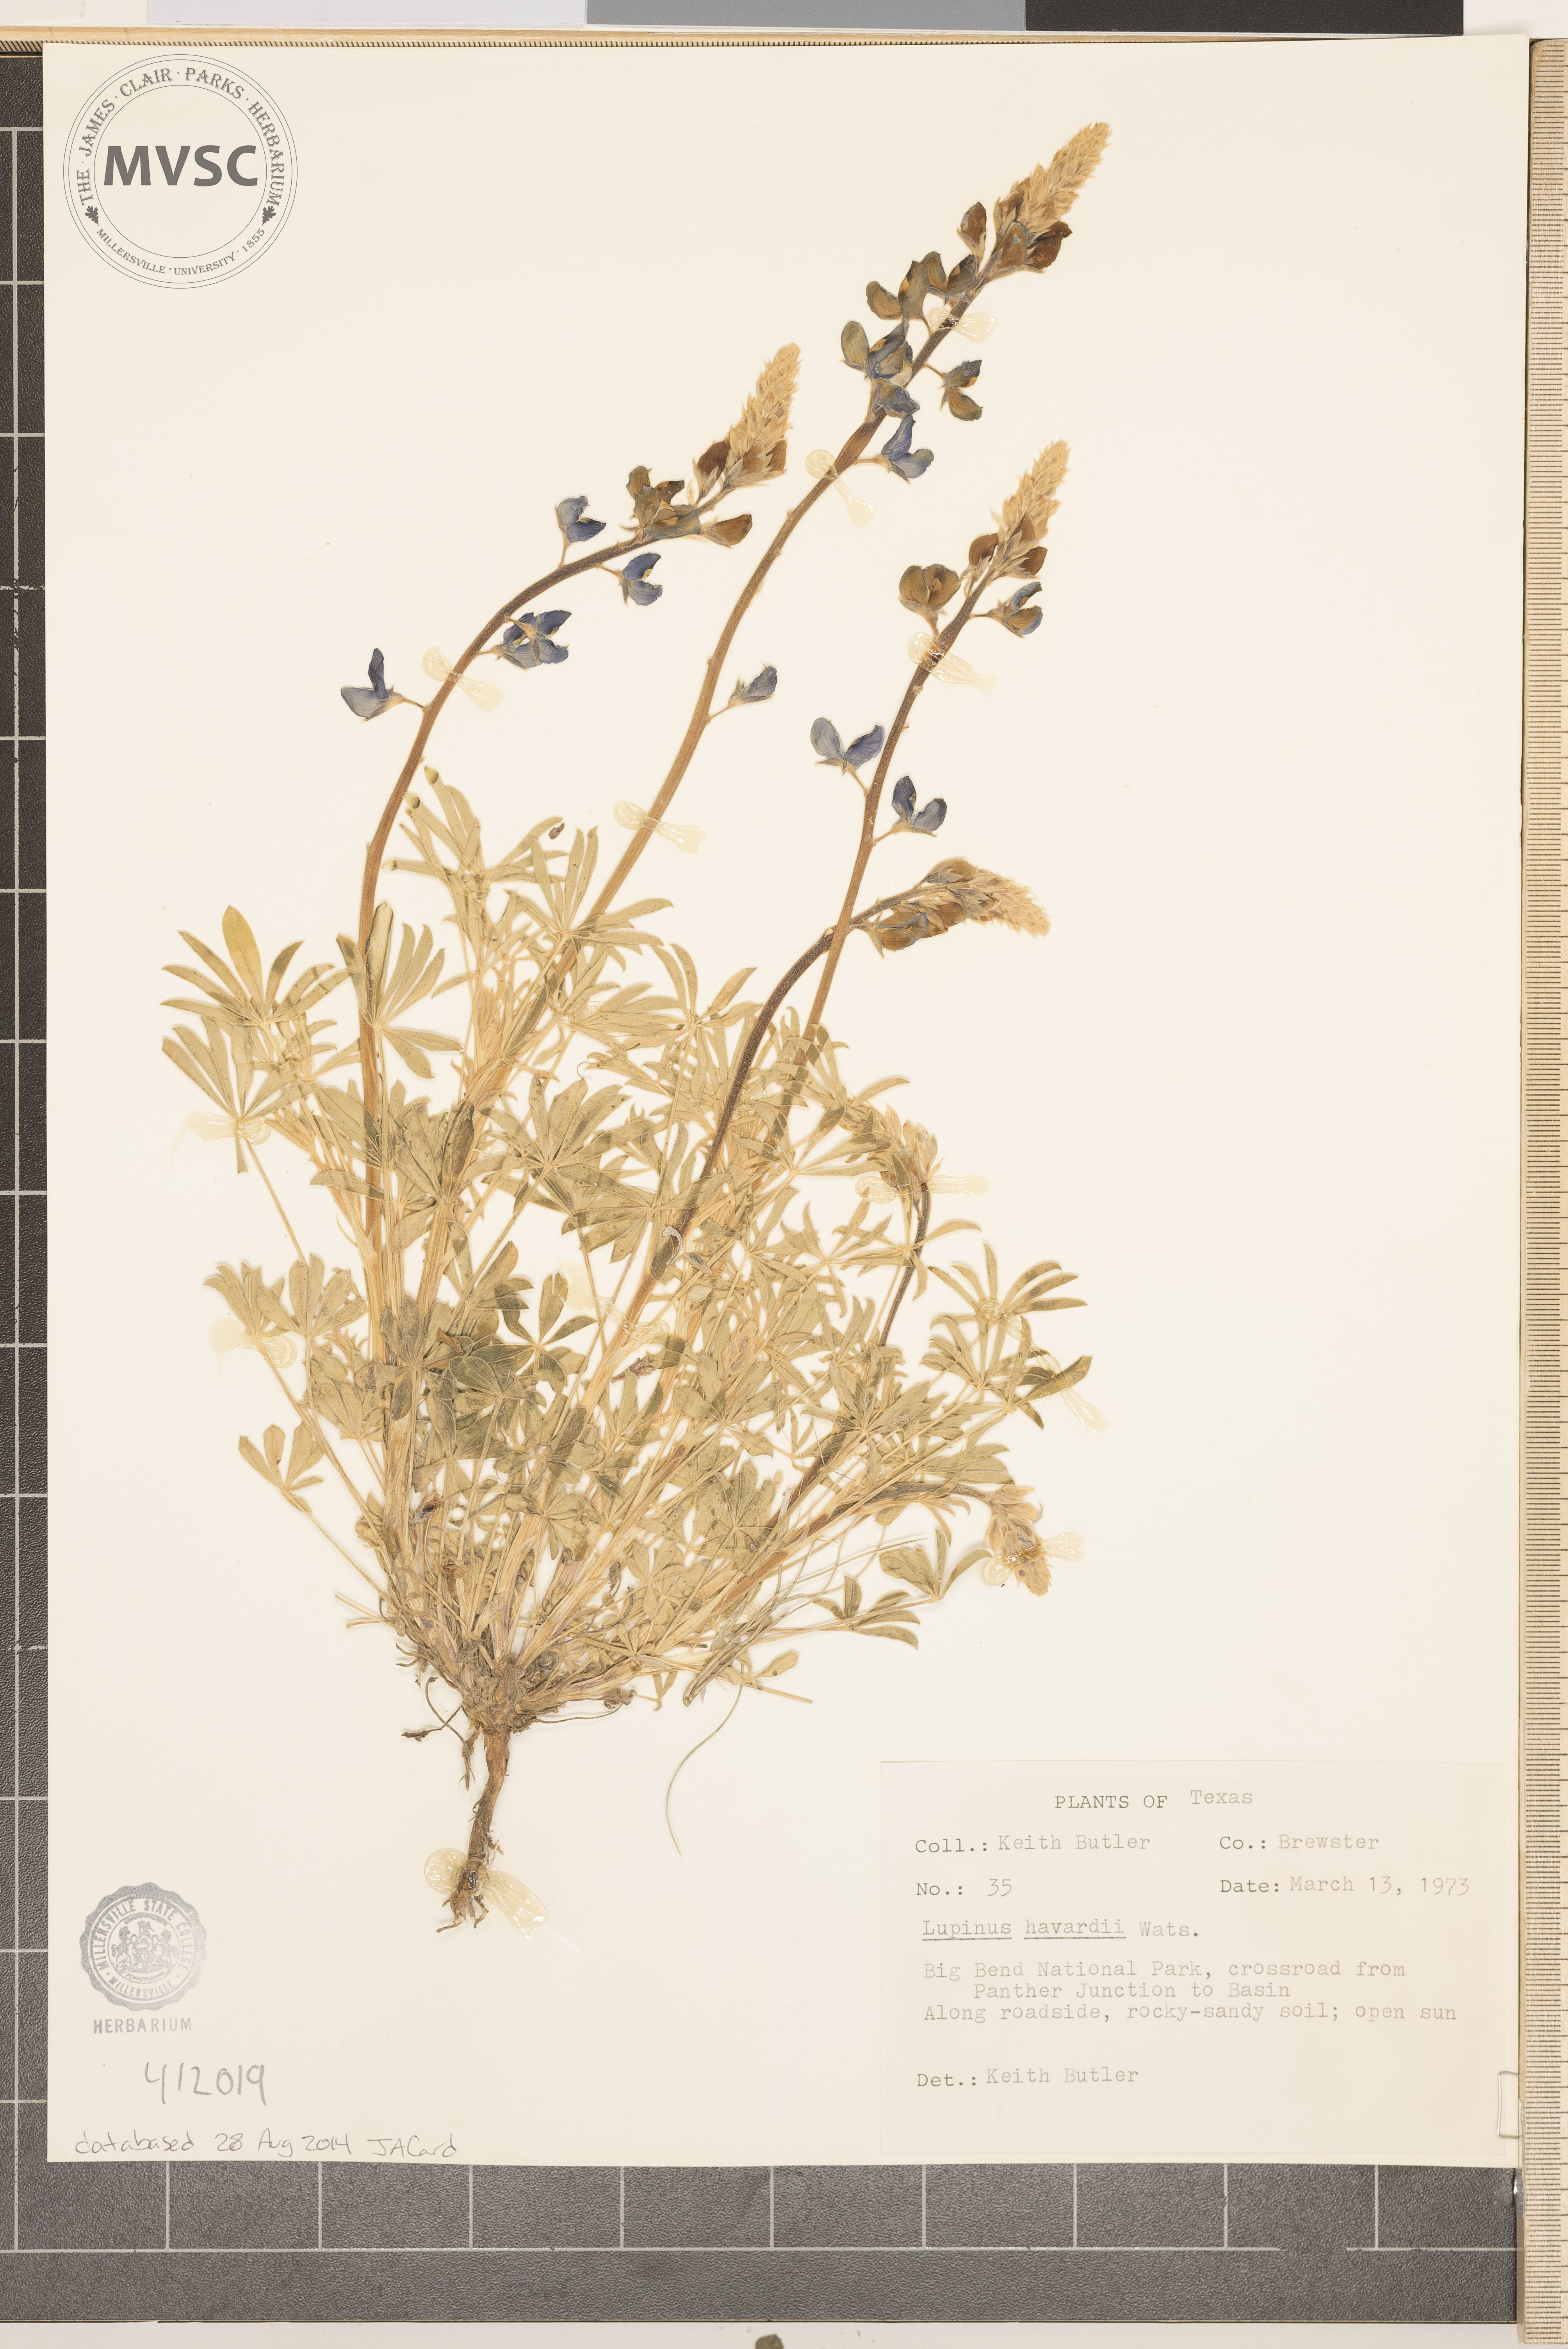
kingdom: Plantae
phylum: Tracheophyta
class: Magnoliopsida
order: Fabales
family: Fabaceae
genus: Lupinus
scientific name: Lupinus havardii
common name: Chisos bluebonnet
